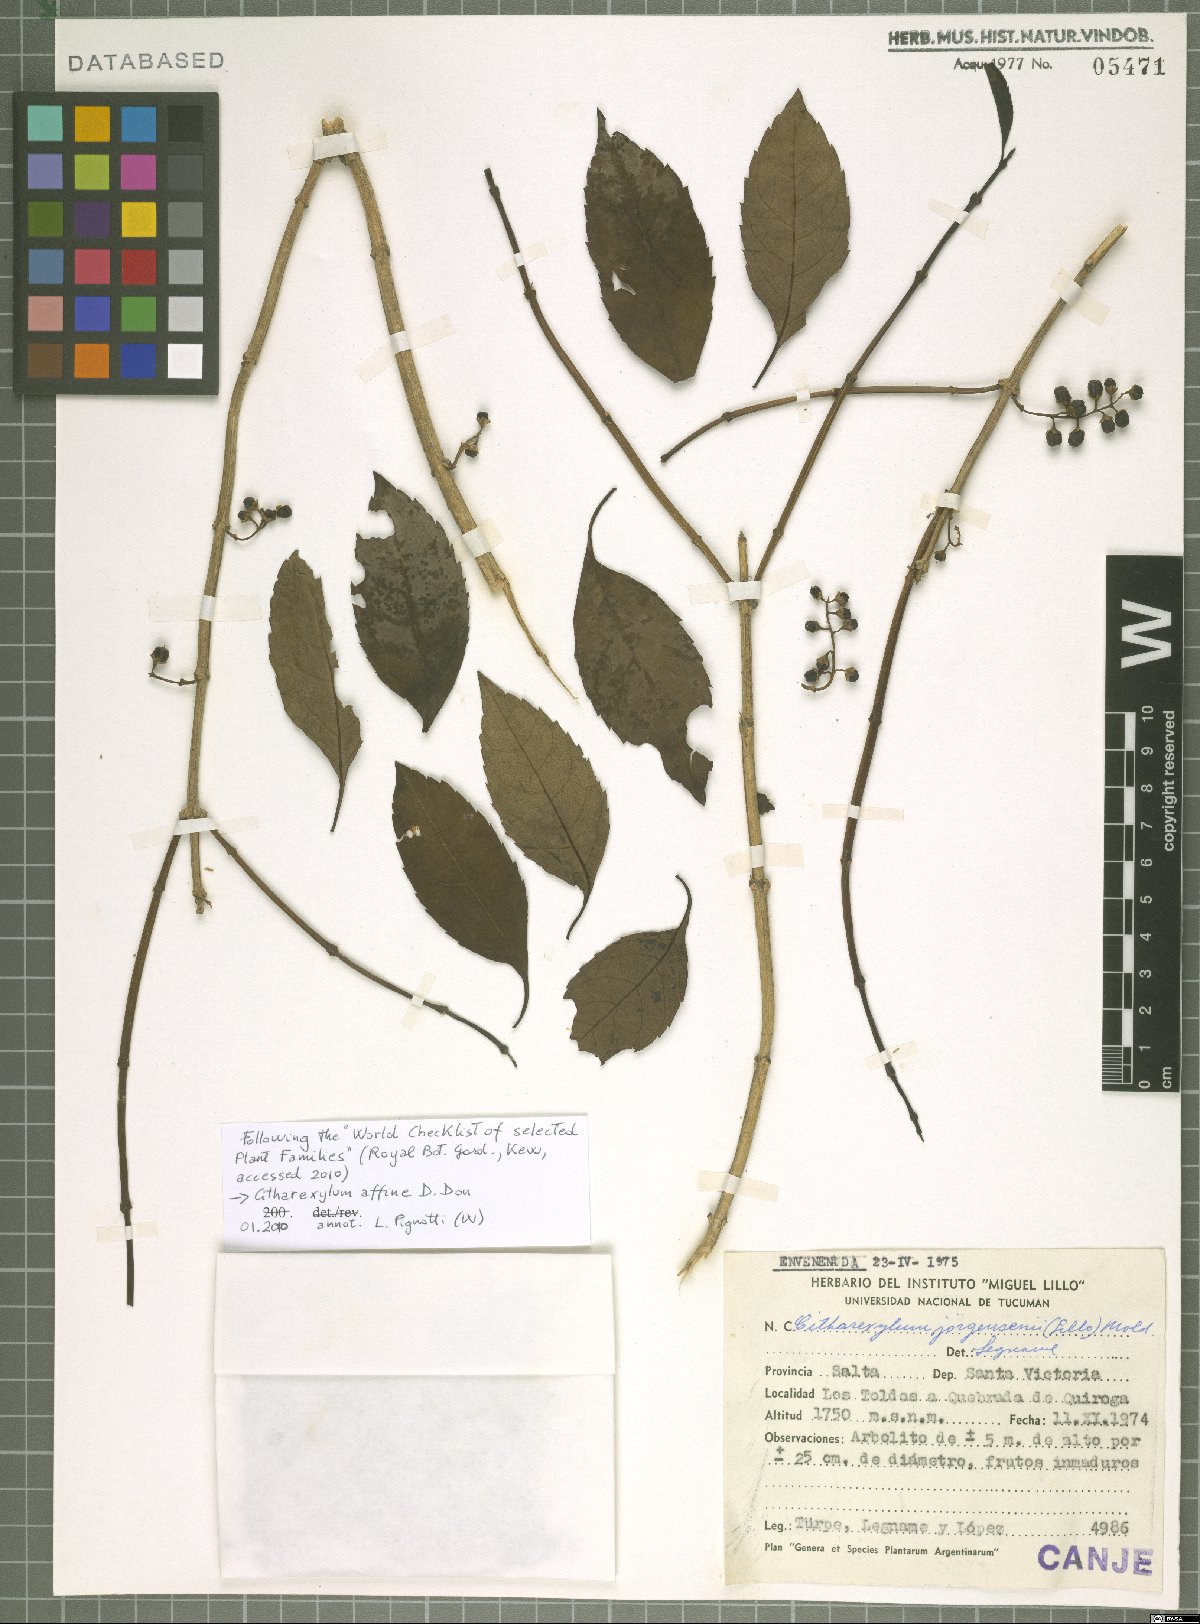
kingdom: Plantae
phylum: Tracheophyta
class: Magnoliopsida
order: Lamiales
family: Verbenaceae
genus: Citharexylum
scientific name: Citharexylum affine
